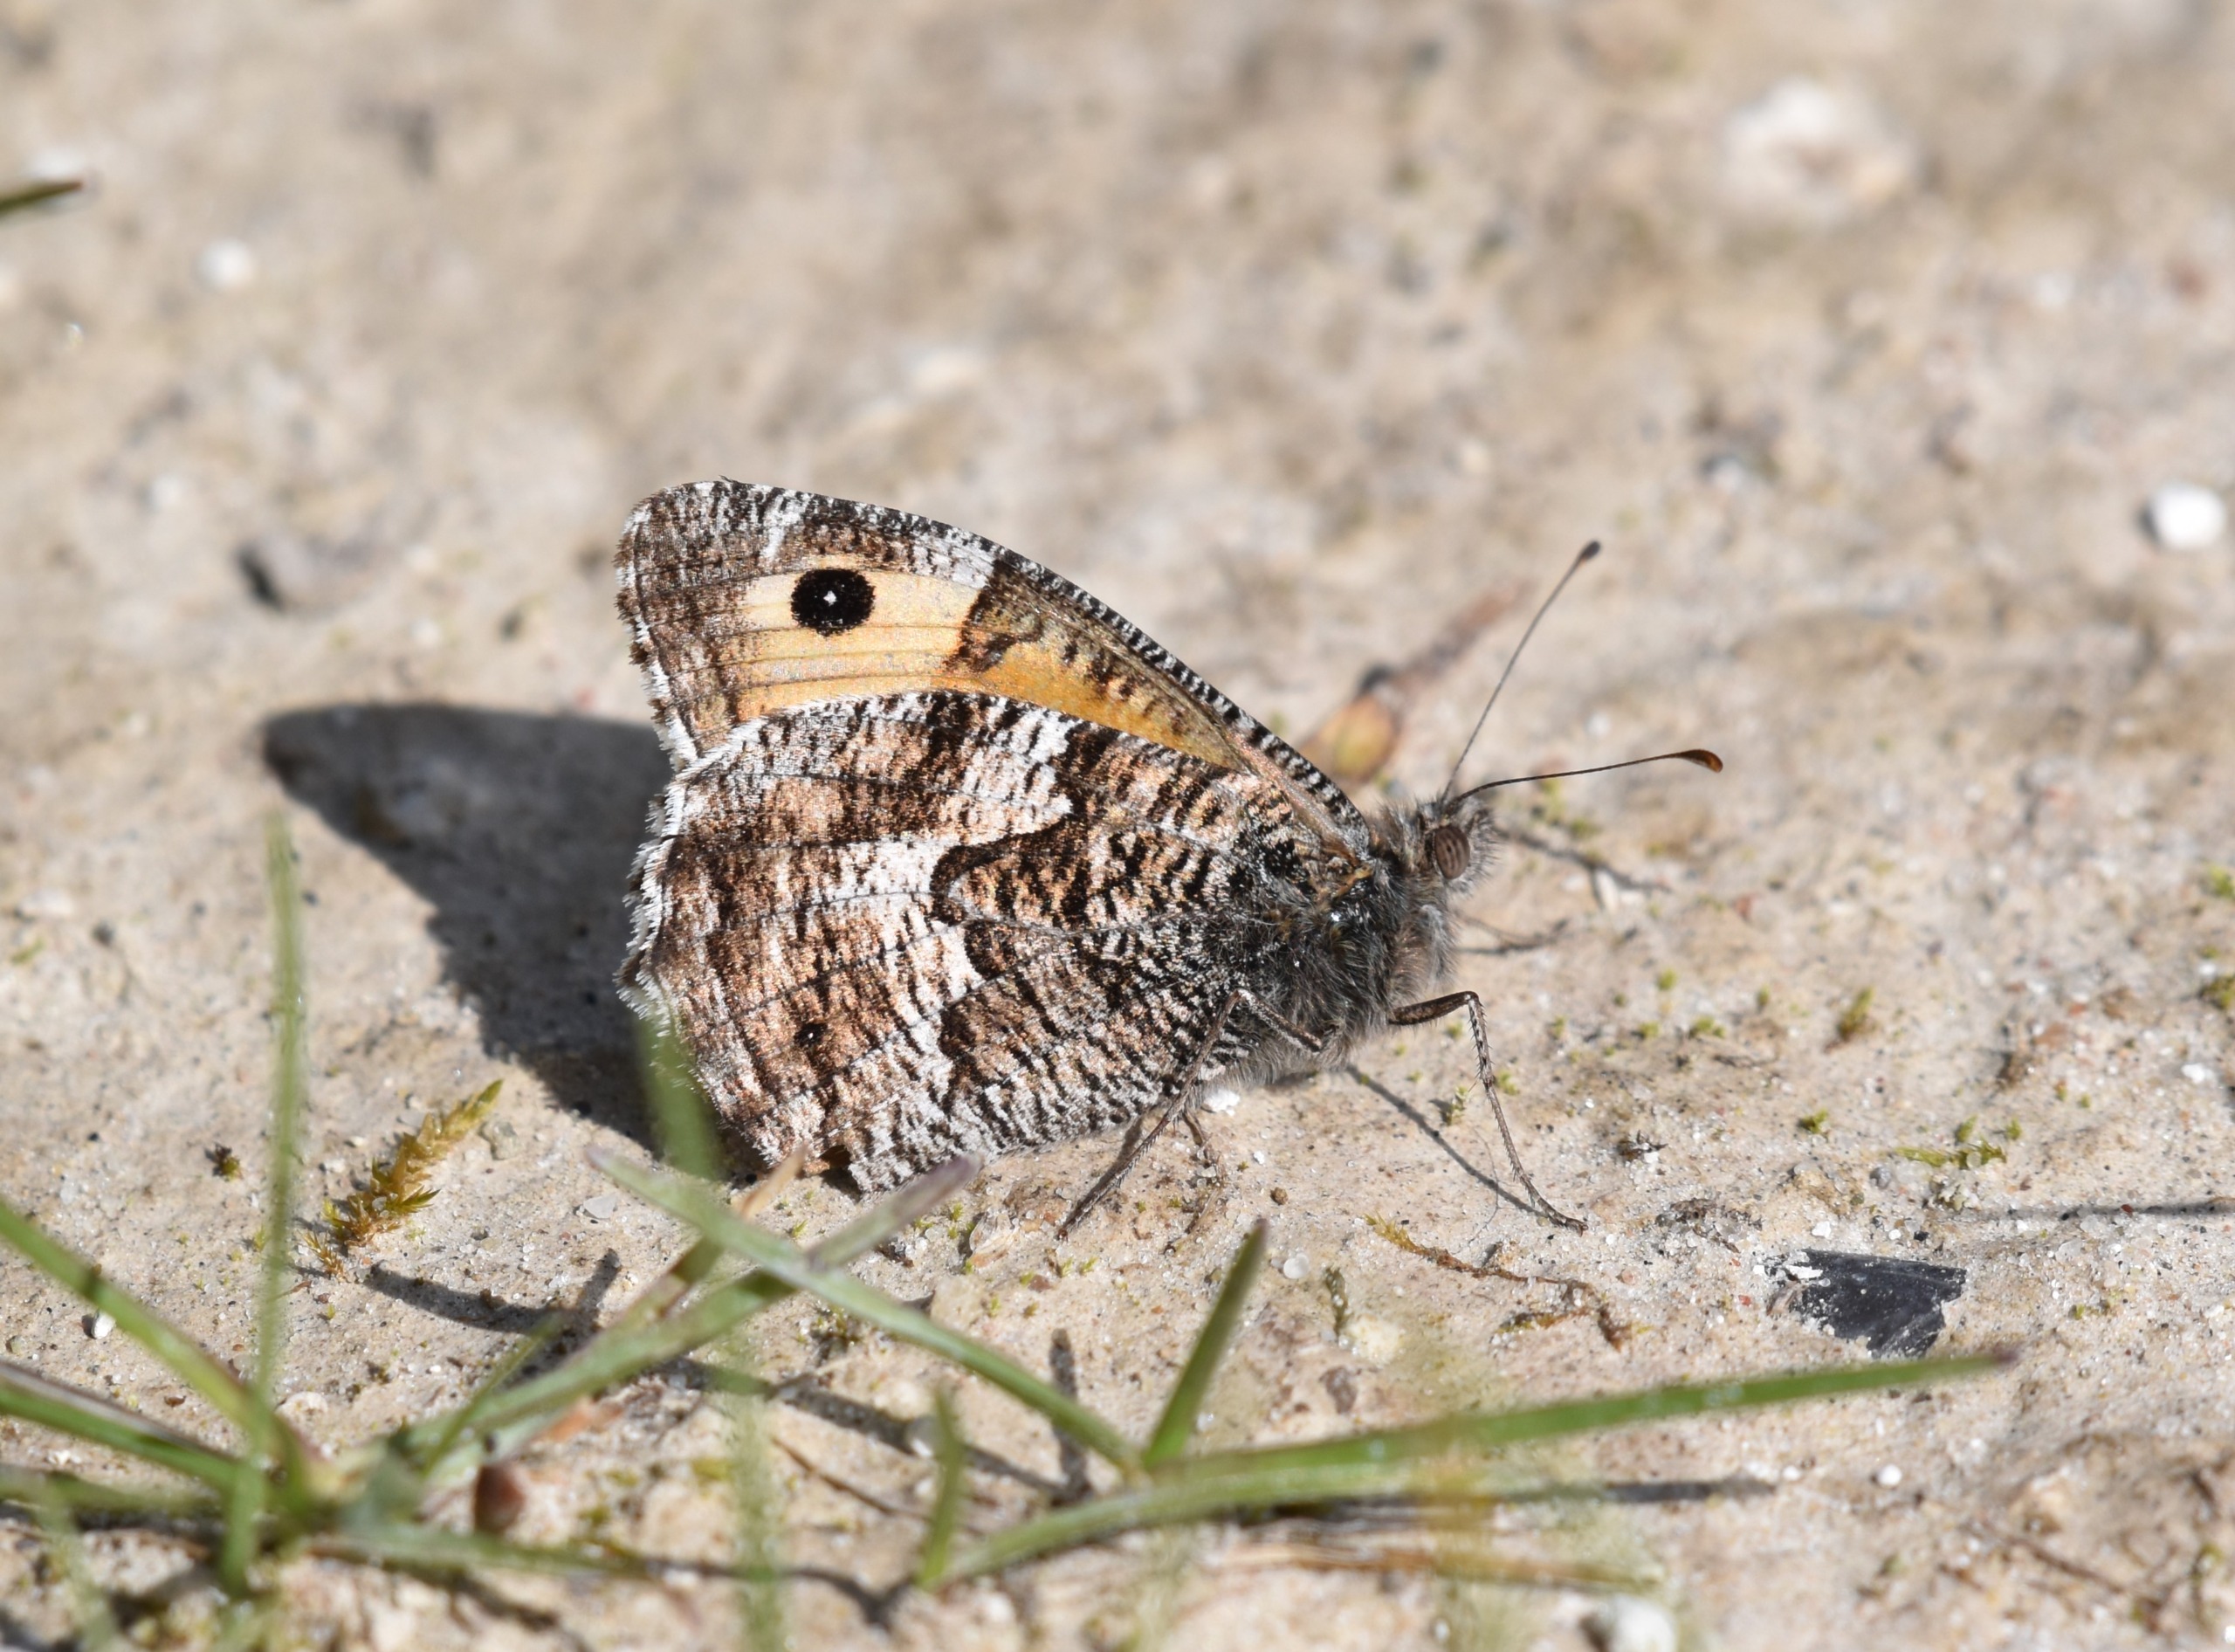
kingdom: Animalia
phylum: Arthropoda
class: Insecta
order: Lepidoptera
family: Nymphalidae
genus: Hipparchia
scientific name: Hipparchia semele
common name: Sandrandøje
